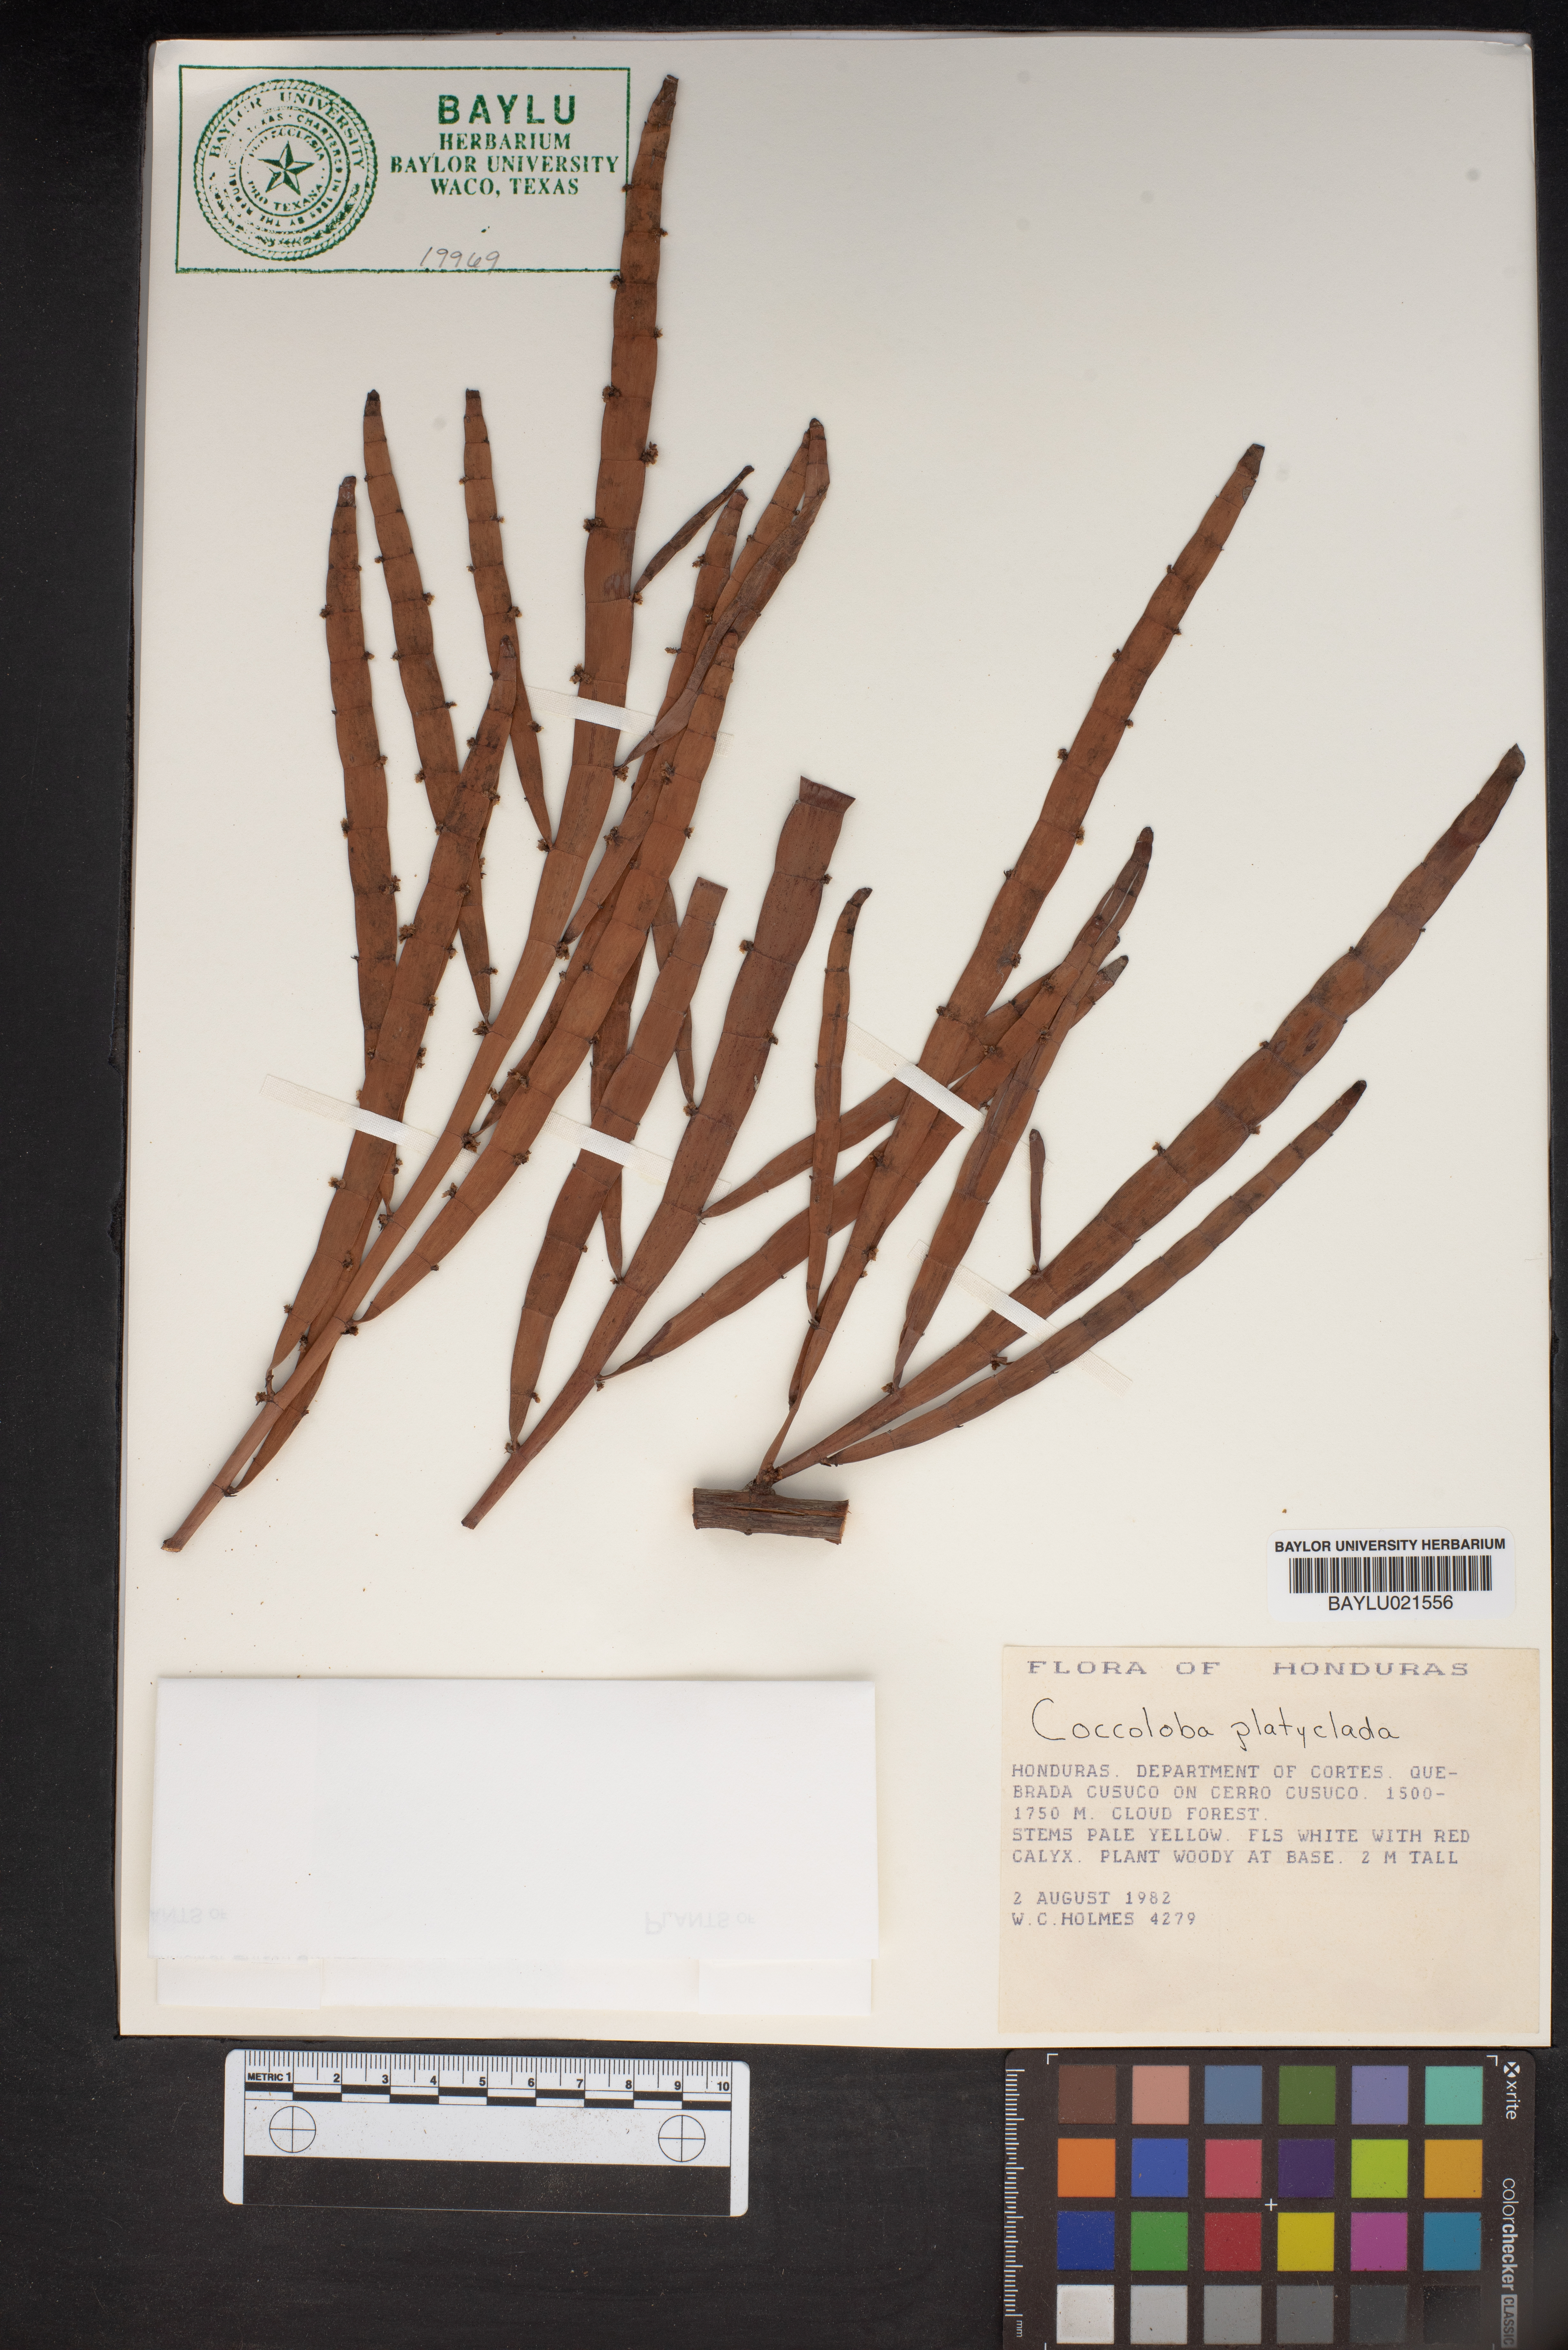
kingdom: Plantae
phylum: Tracheophyta
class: Magnoliopsida
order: Caryophyllales
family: Polygonaceae
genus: Muehlenbeckia
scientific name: Muehlenbeckia platyclada
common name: Tapewormplant
